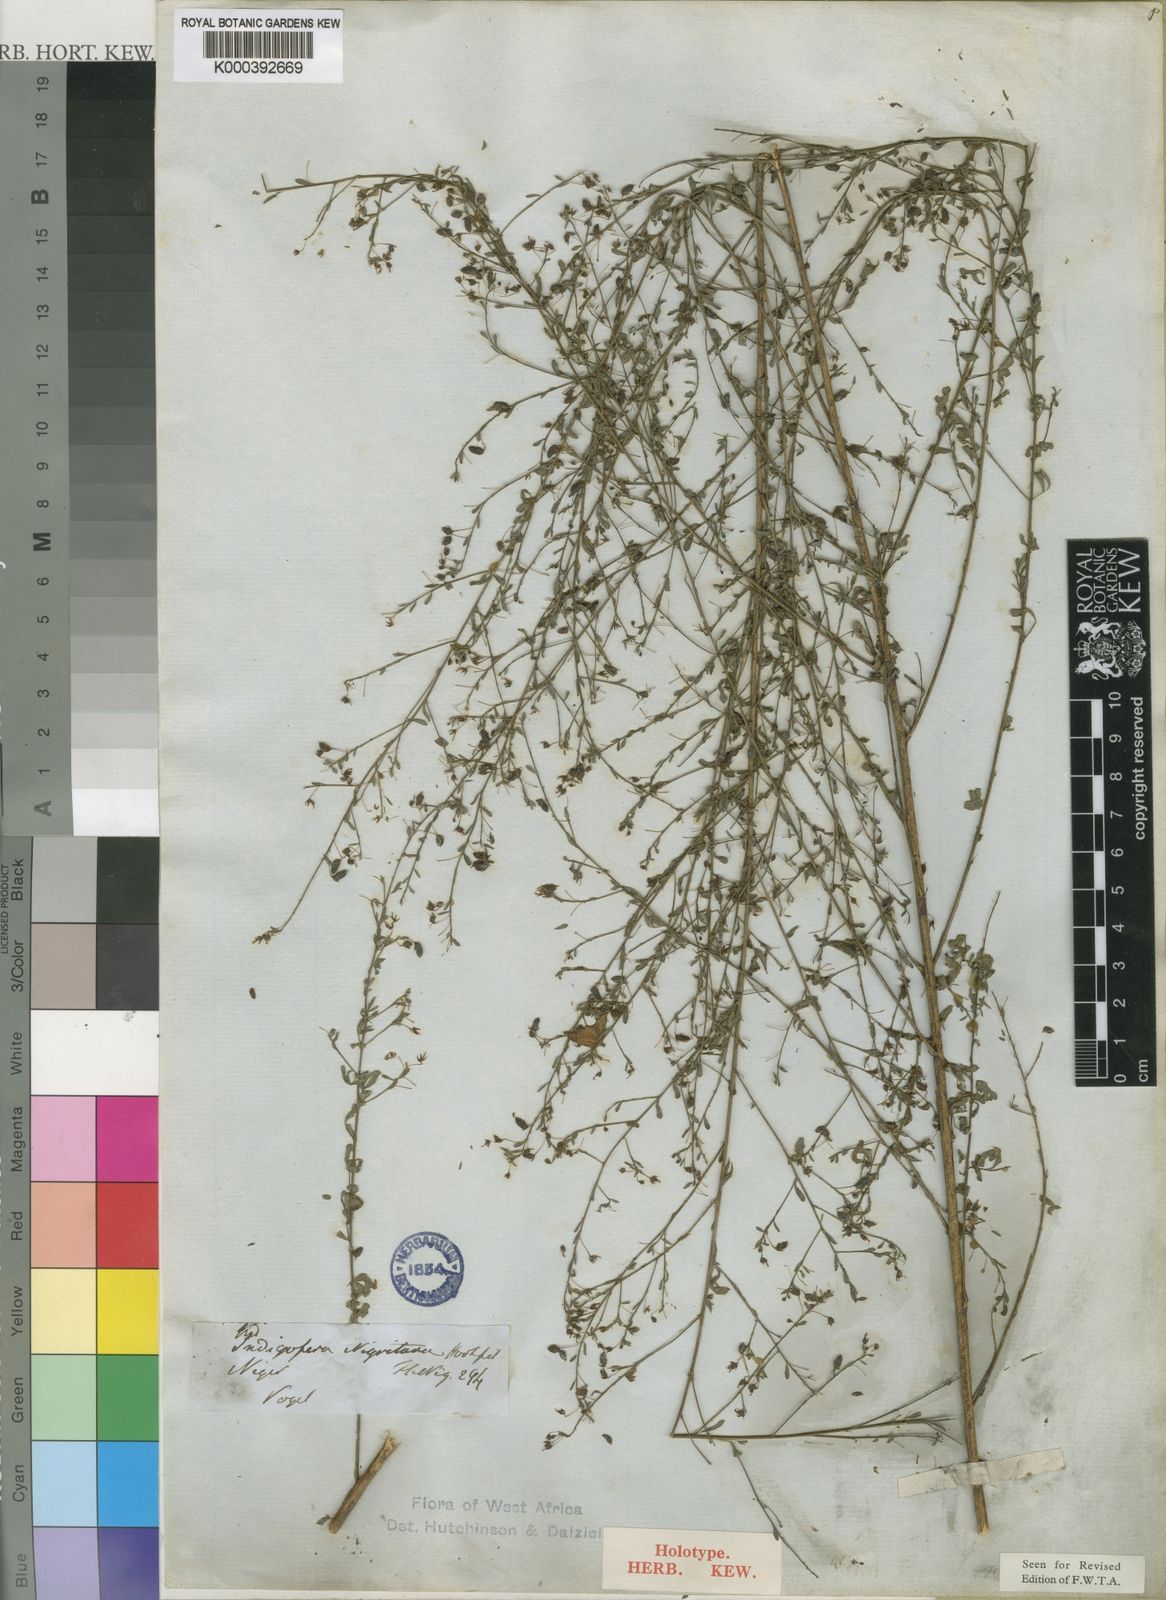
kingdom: Plantae
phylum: Tracheophyta
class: Magnoliopsida
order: Fabales
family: Fabaceae
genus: Indigofera
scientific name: Indigofera nigritana
